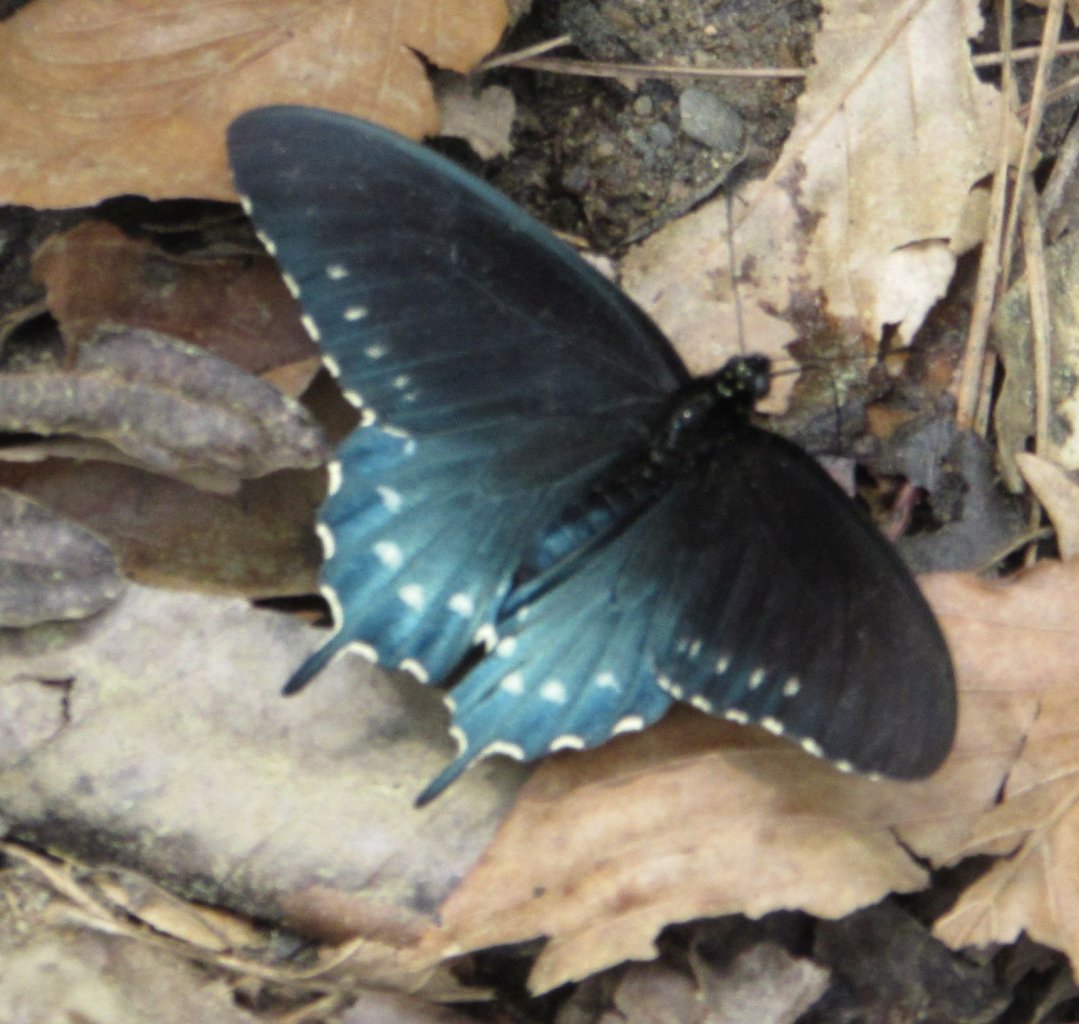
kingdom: Animalia
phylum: Arthropoda
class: Insecta
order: Lepidoptera
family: Papilionidae
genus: Battus
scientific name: Battus philenor
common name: Pipevine Swallowtail
